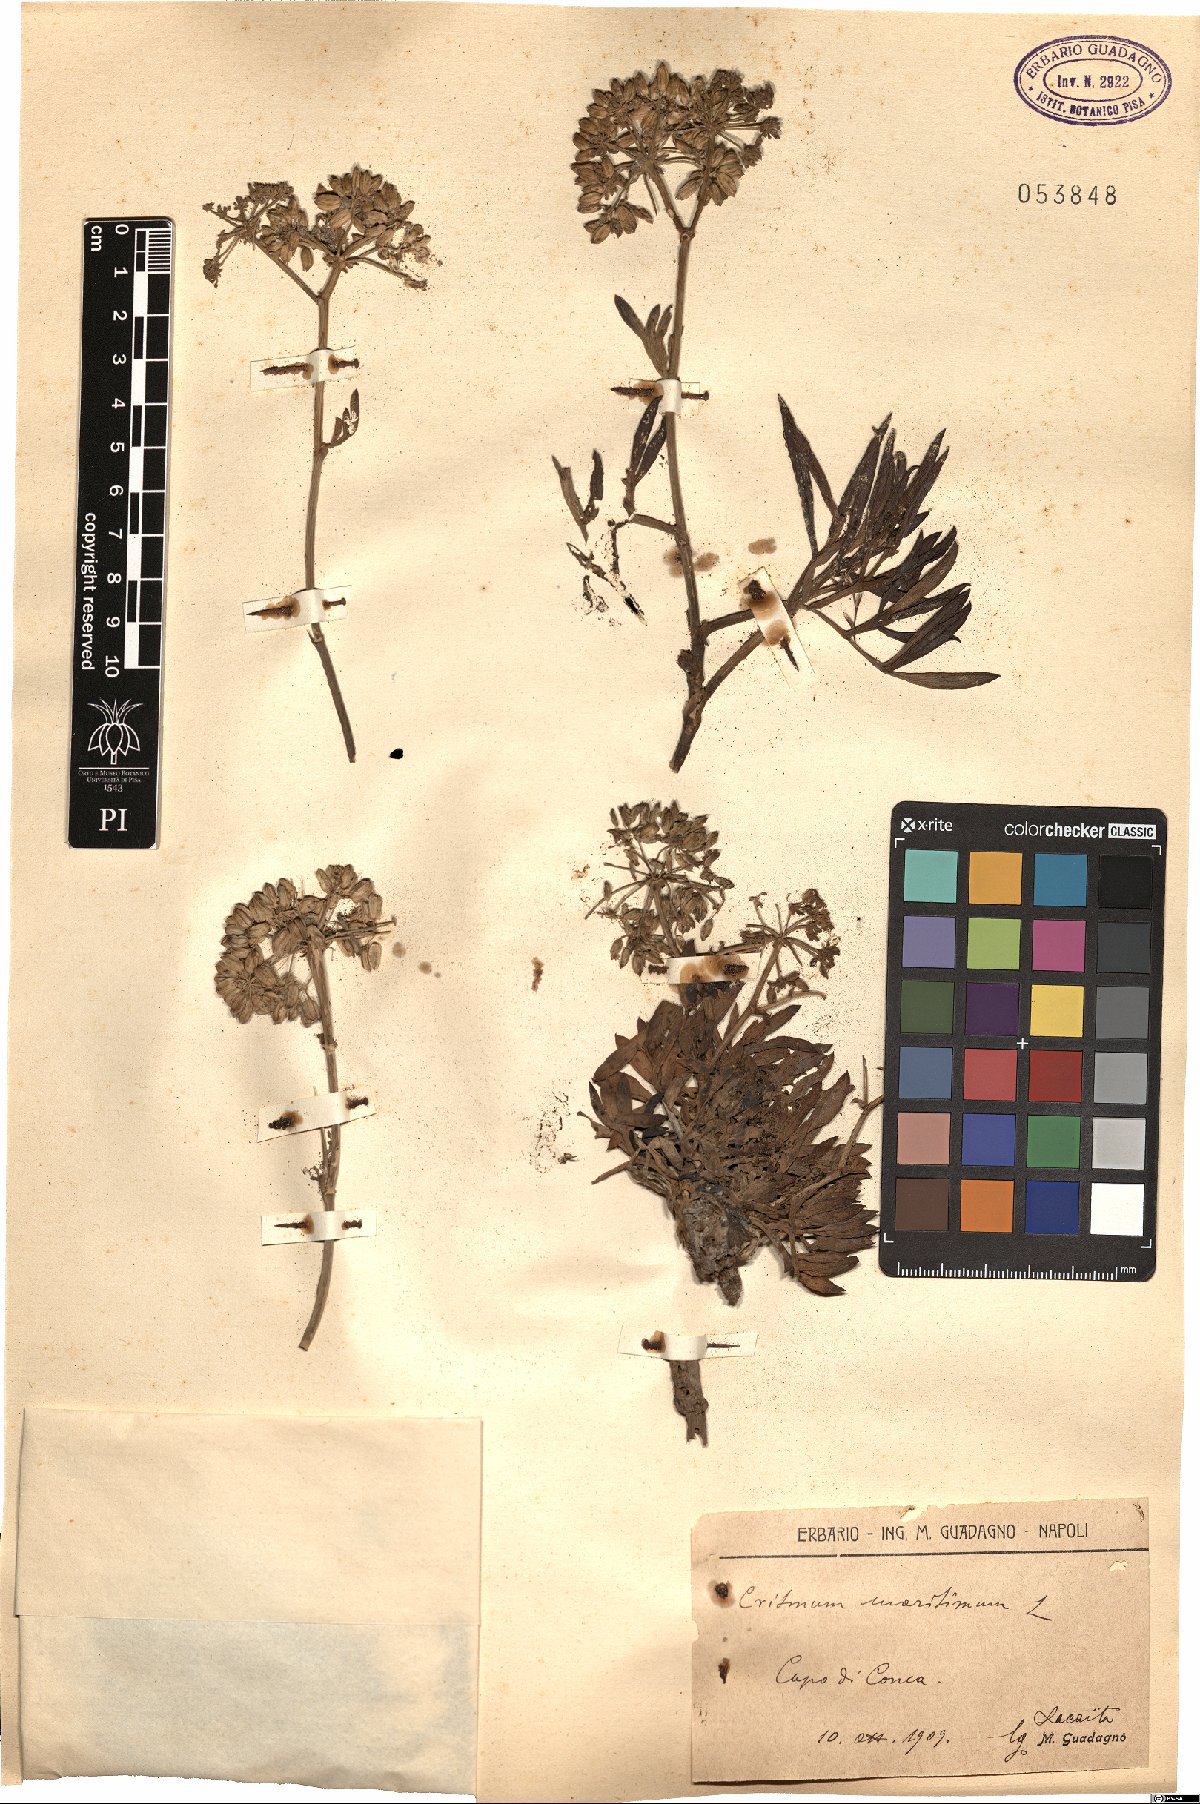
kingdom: Plantae
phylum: Tracheophyta
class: Magnoliopsida
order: Apiales
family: Apiaceae
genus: Crithmum
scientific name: Crithmum maritimum
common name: Rock samphire
